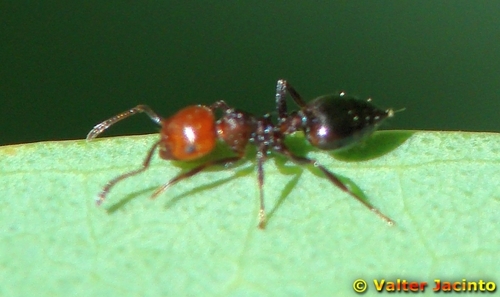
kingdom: Animalia
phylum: Arthropoda
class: Insecta
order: Hymenoptera
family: Formicidae
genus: Crematogaster
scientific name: Crematogaster scutellaris
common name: Fourmi du liège
